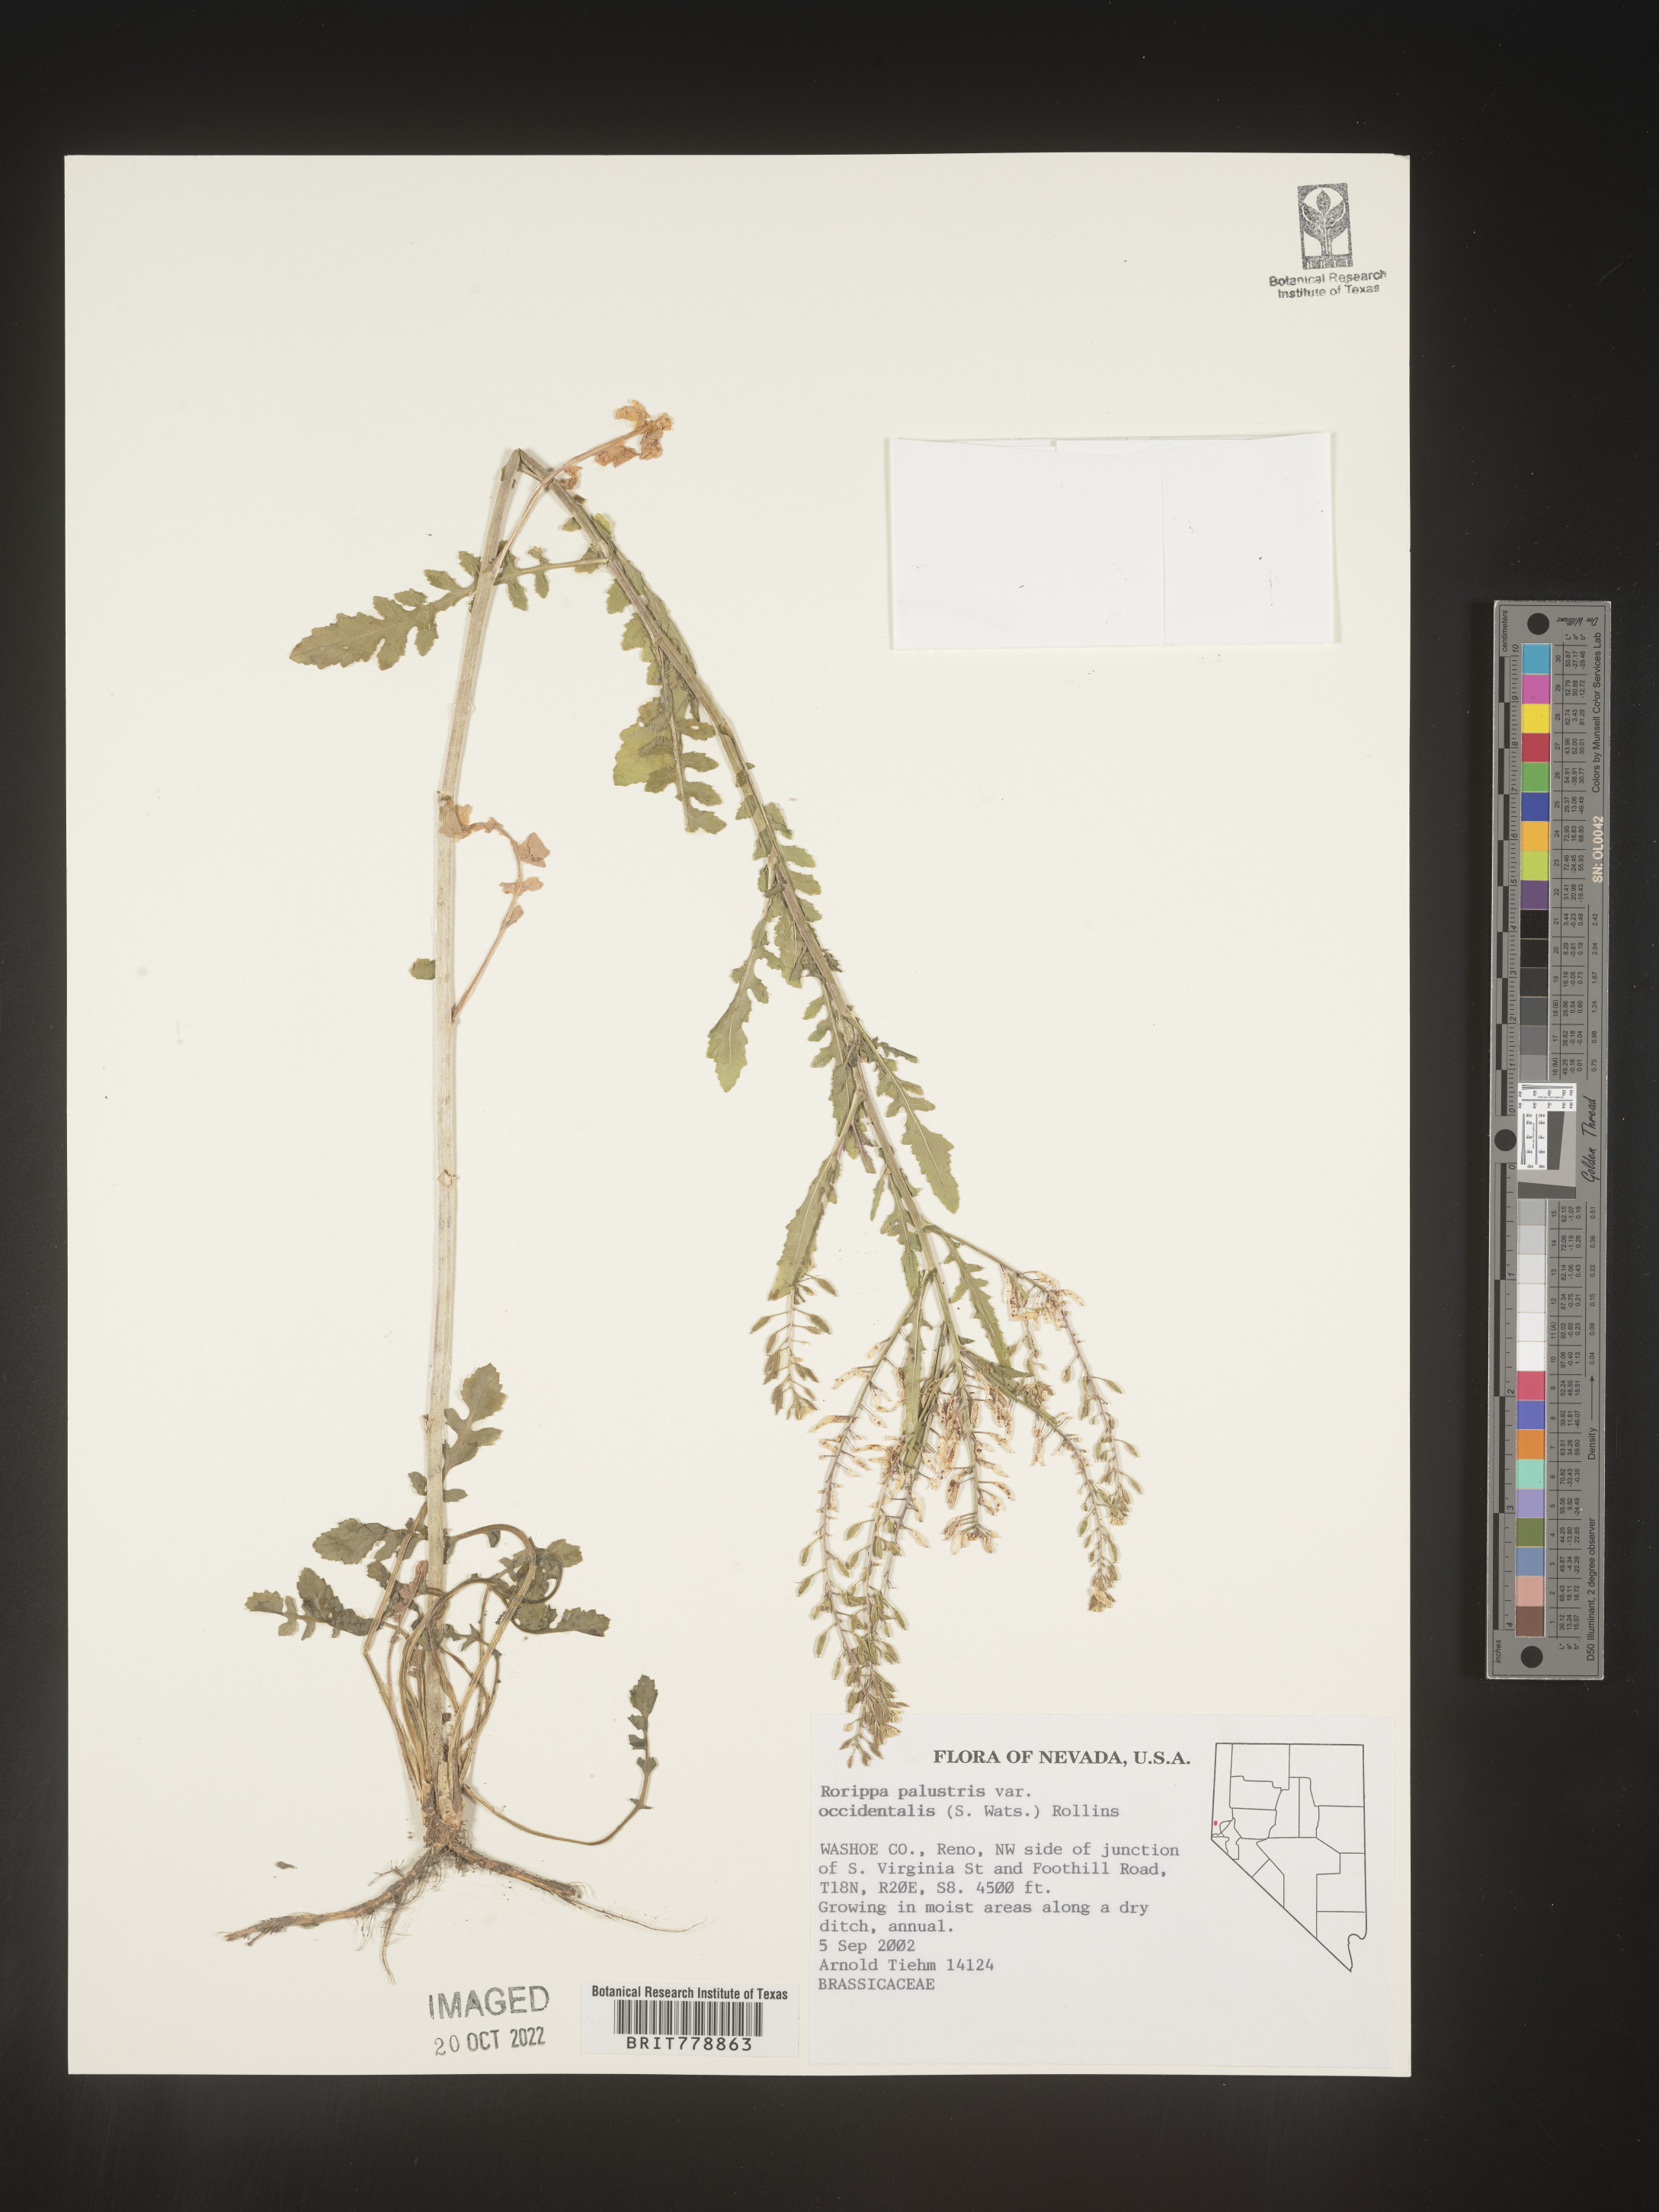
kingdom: Plantae
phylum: Tracheophyta
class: Magnoliopsida
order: Brassicales
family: Brassicaceae
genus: Rorippa
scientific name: Rorippa palustris
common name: Marsh yellow-cress
